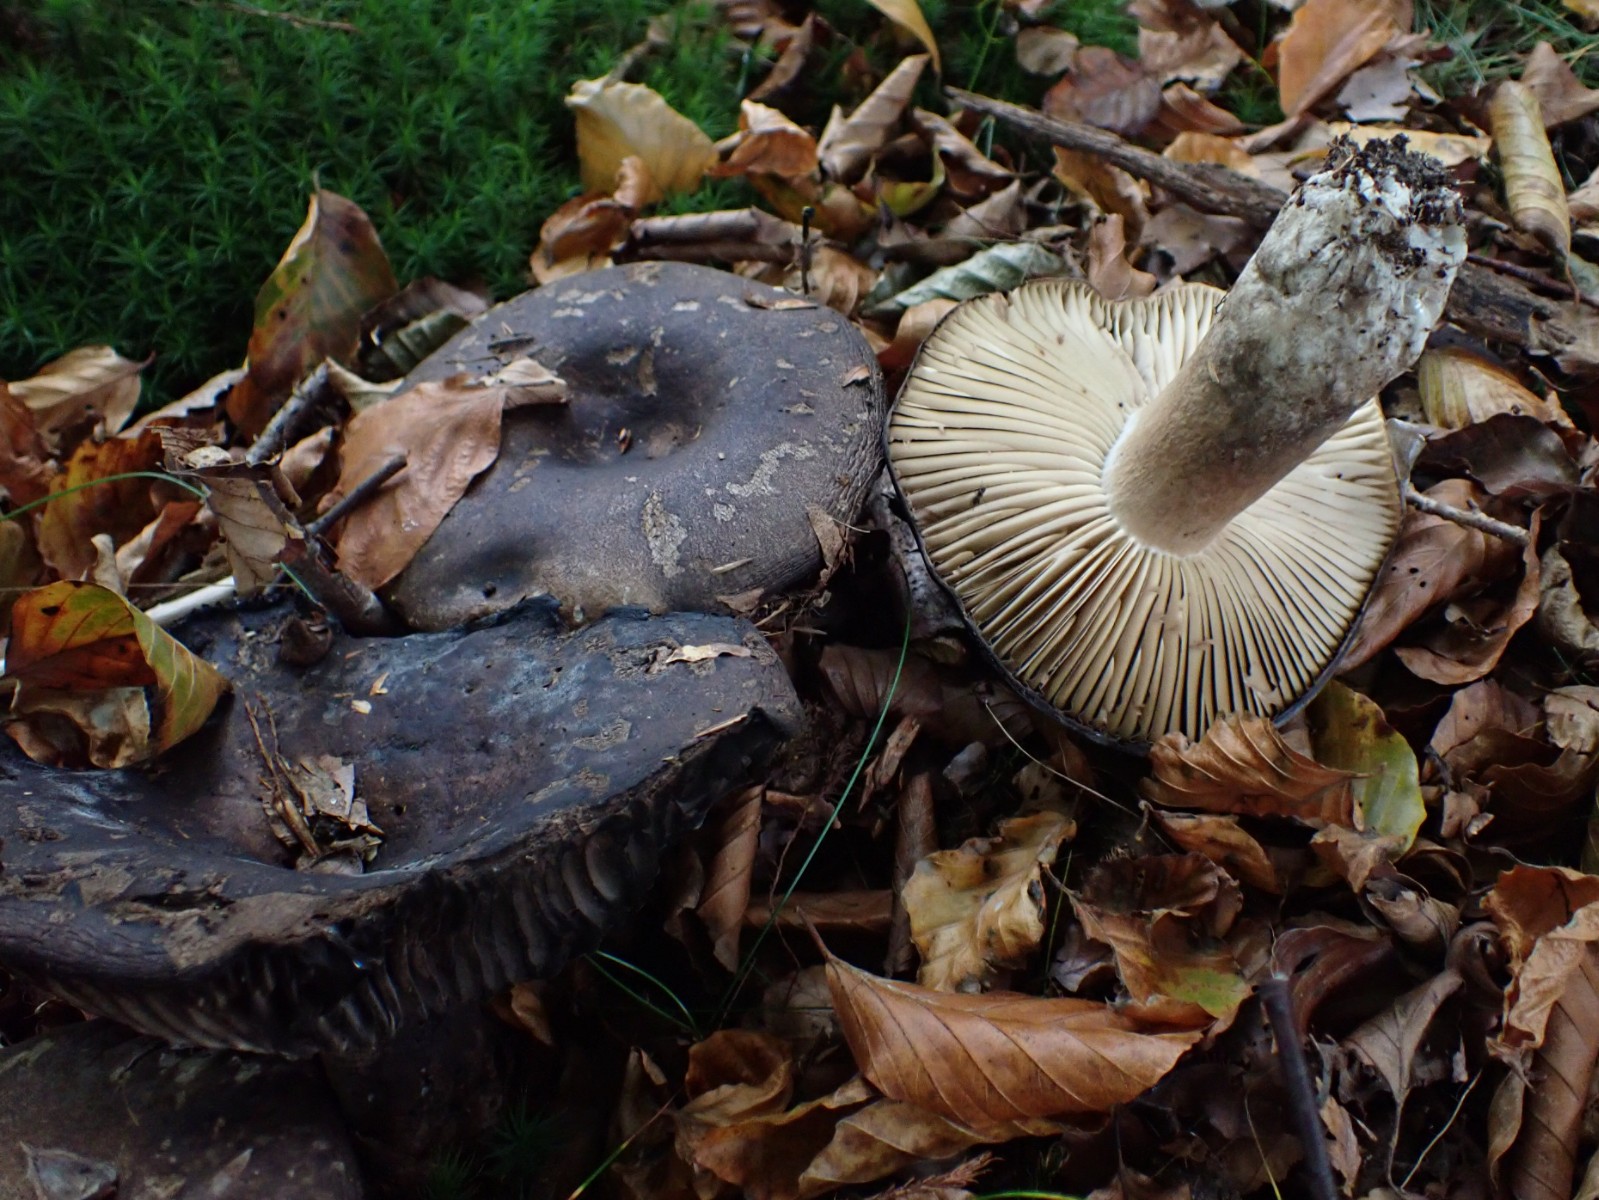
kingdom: Fungi
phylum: Basidiomycota
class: Agaricomycetes
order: Russulales
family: Russulaceae
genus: Russula
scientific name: Russula adusta
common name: sværtende skørhat
